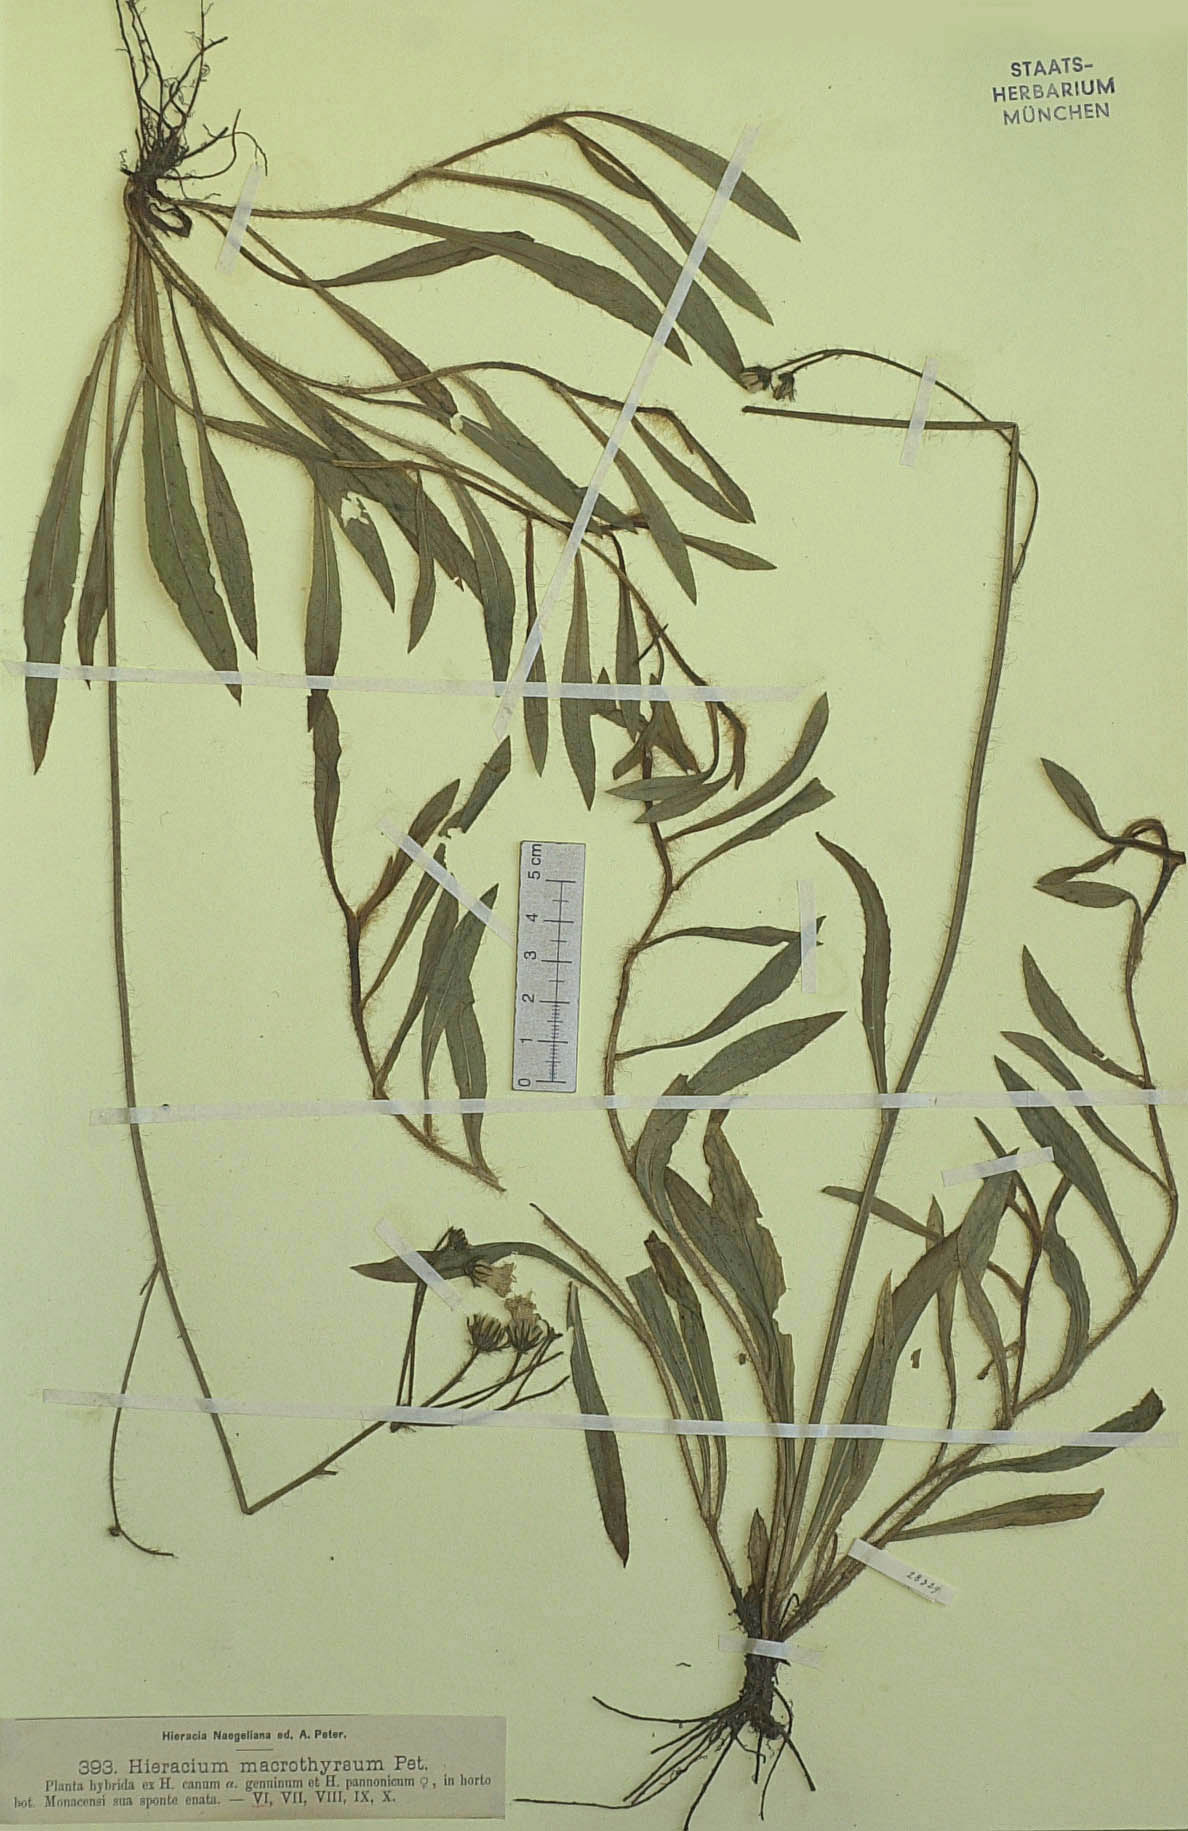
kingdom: Plantae
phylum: Tracheophyta
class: Magnoliopsida
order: Asterales
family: Asteraceae
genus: Hieracium
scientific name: Hieracium macrothyrsum
